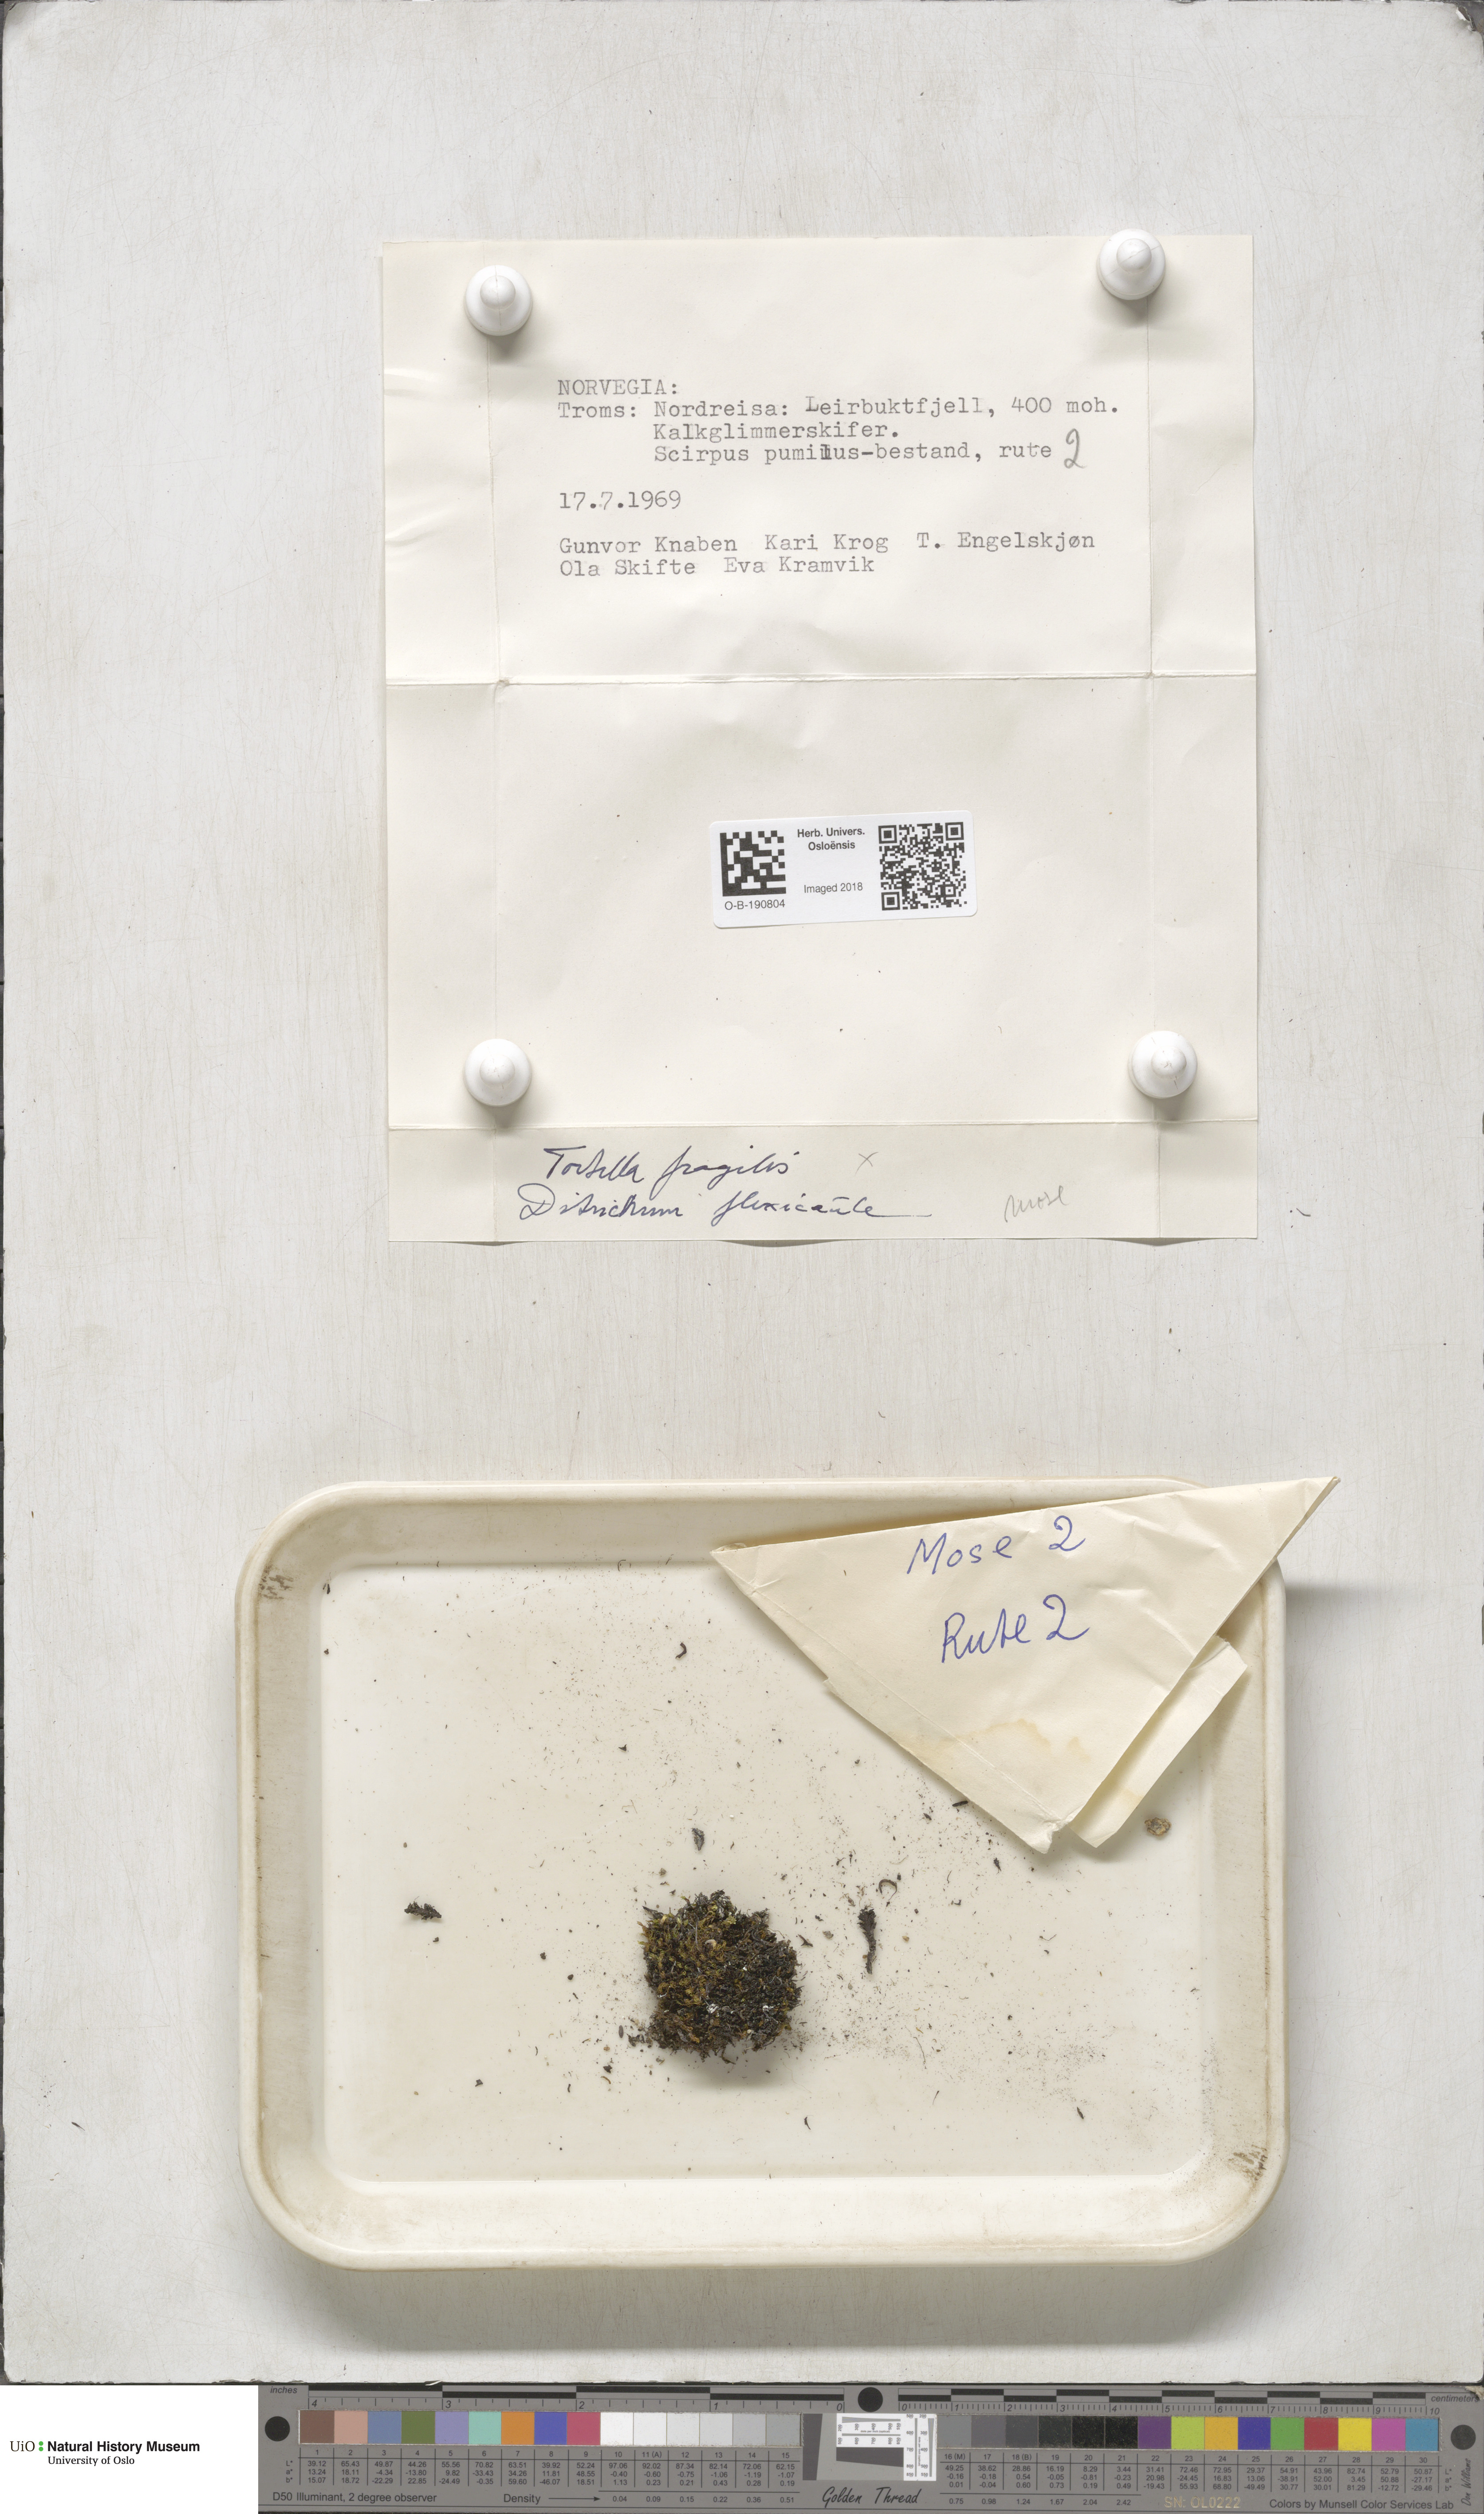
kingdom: Plantae
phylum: Bryophyta
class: Bryopsida
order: Pottiales
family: Pottiaceae
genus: Tortella
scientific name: Tortella fragilis
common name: Fragile twisted moss
